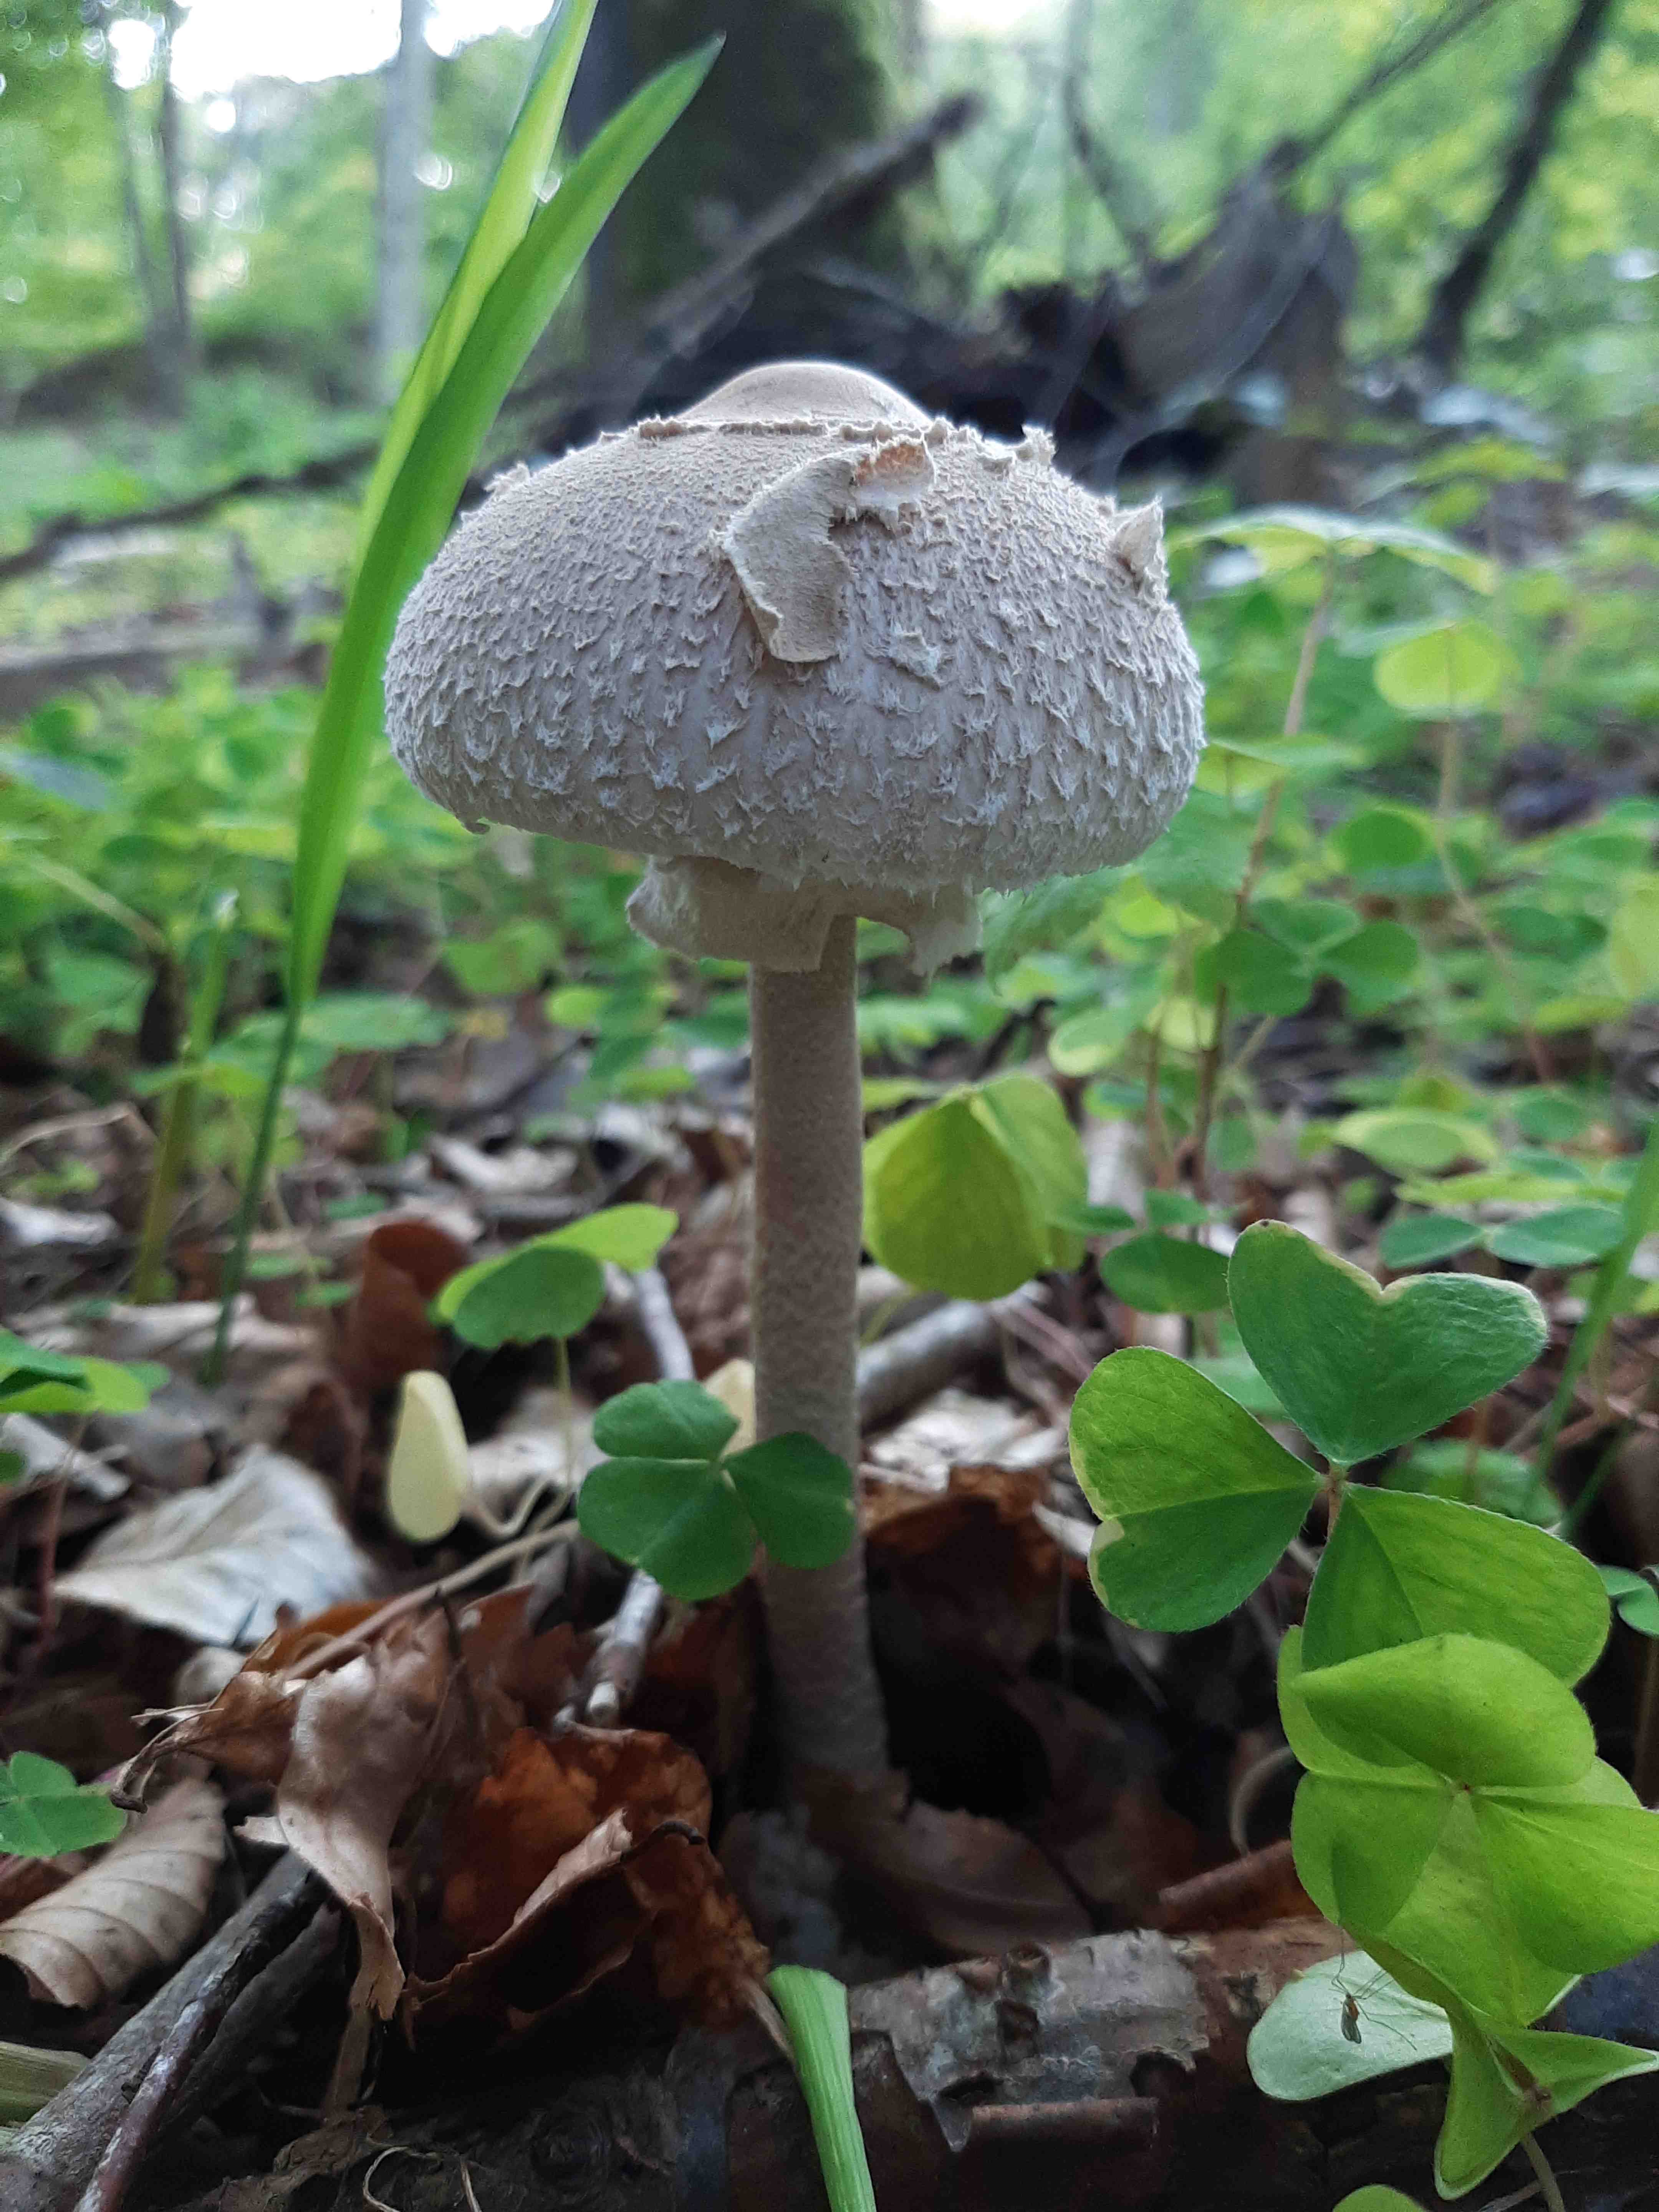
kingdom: Fungi
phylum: Basidiomycota
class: Agaricomycetes
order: Agaricales
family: Agaricaceae
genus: Macrolepiota
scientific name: Macrolepiota mastoidea
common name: puklet kæmpeparasolhat
